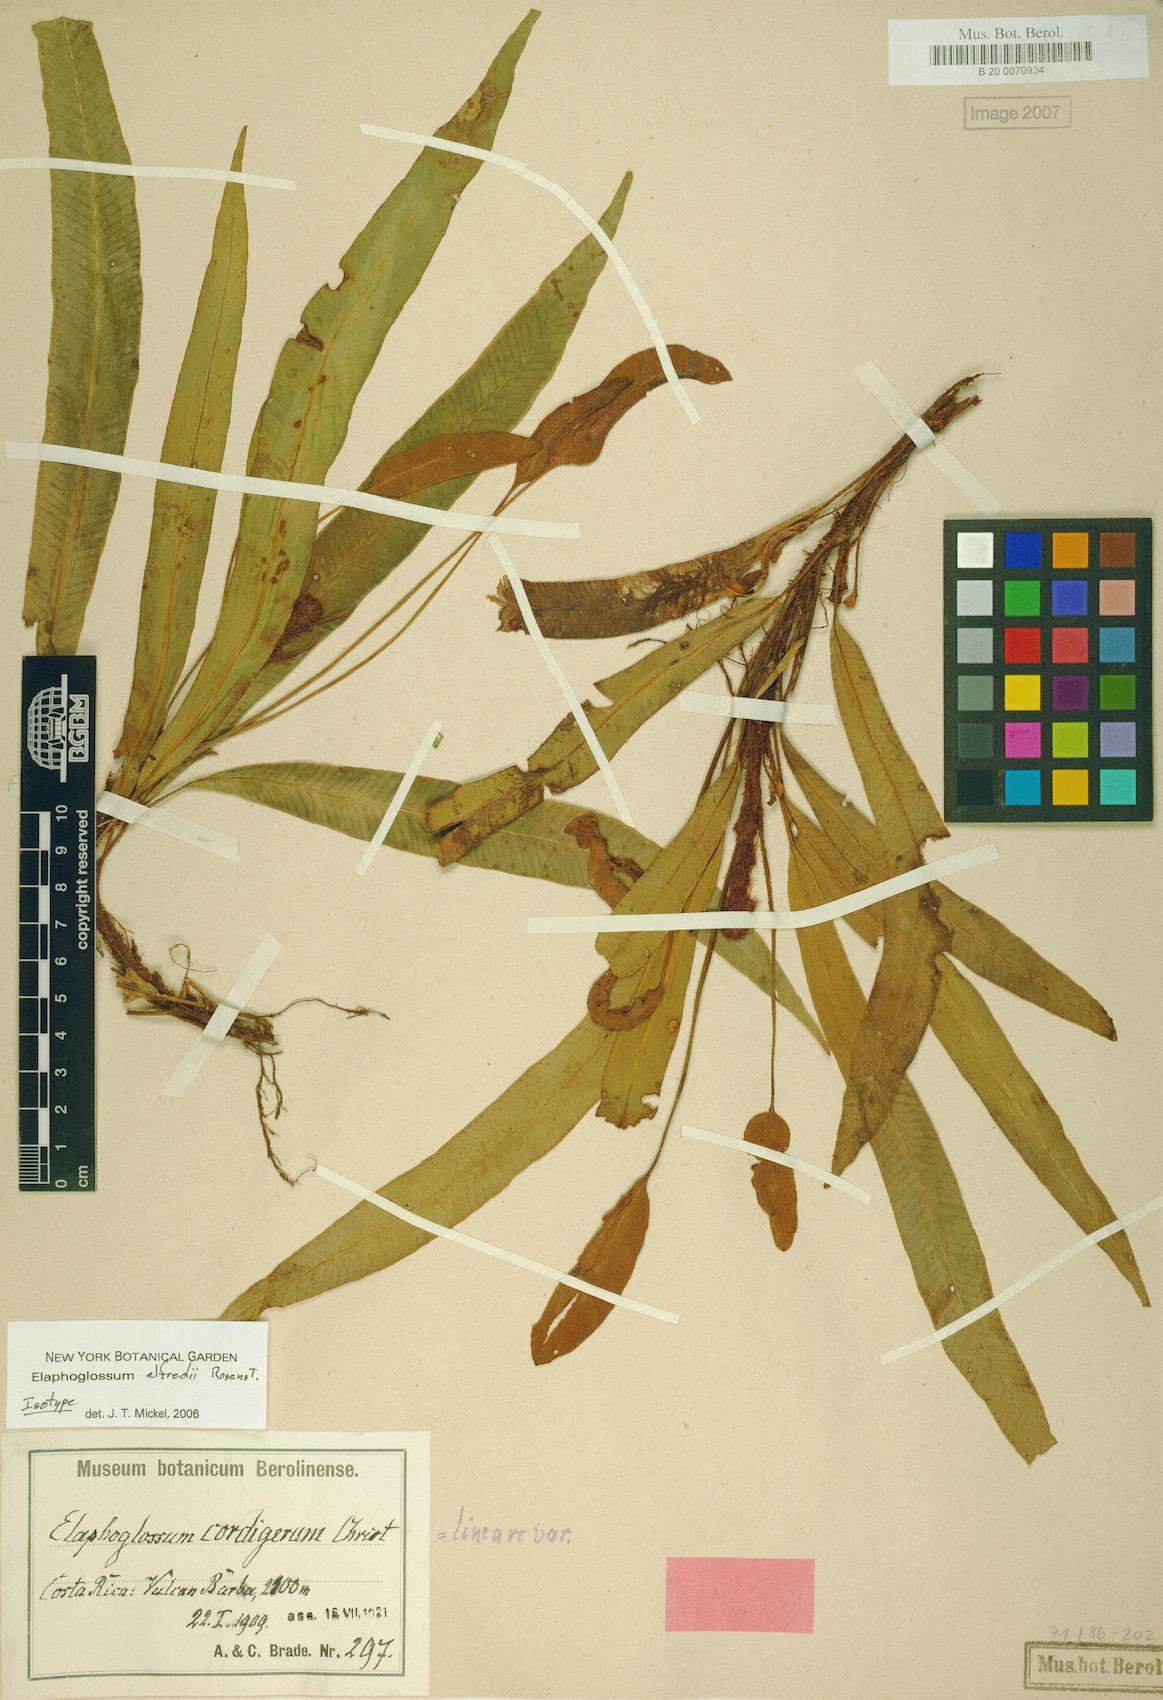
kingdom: Plantae
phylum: Tracheophyta
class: Polypodiopsida
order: Polypodiales
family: Dryopteridaceae
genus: Elaphoglossum
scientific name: Elaphoglossum alfredii
